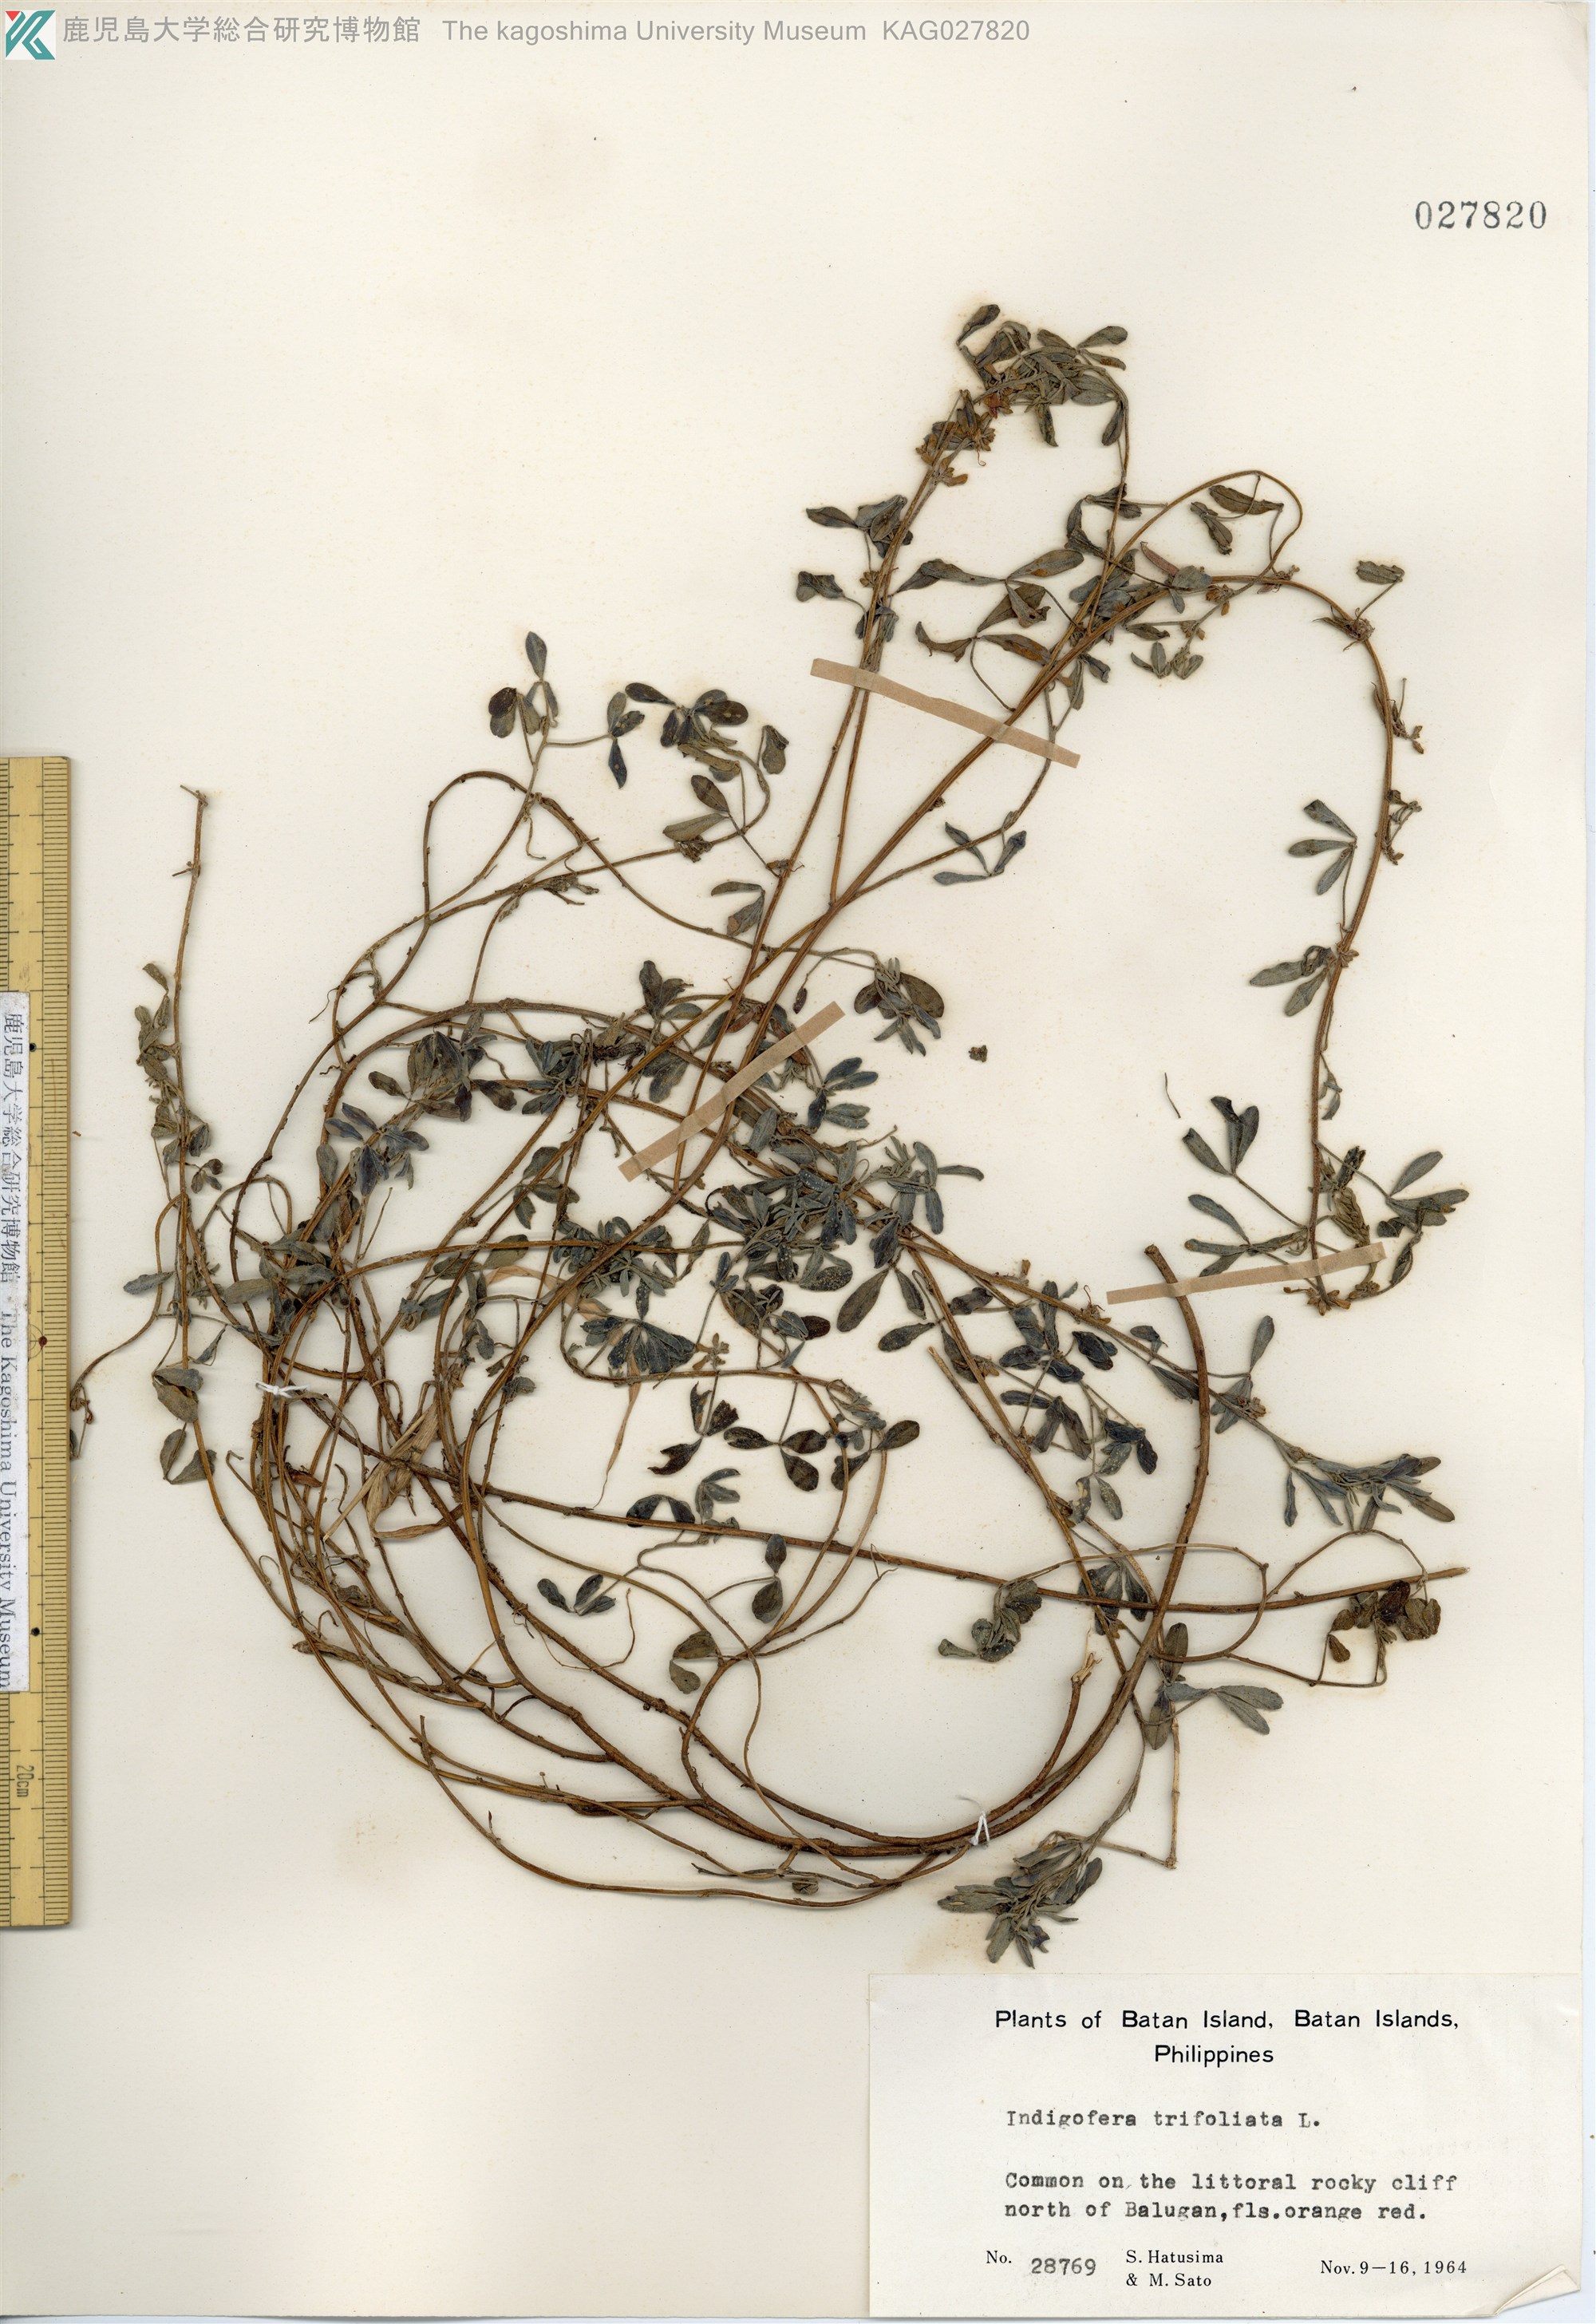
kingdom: Plantae
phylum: Tracheophyta
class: Magnoliopsida
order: Fabales
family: Fabaceae
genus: Indigofera
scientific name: Indigofera trifoliata
